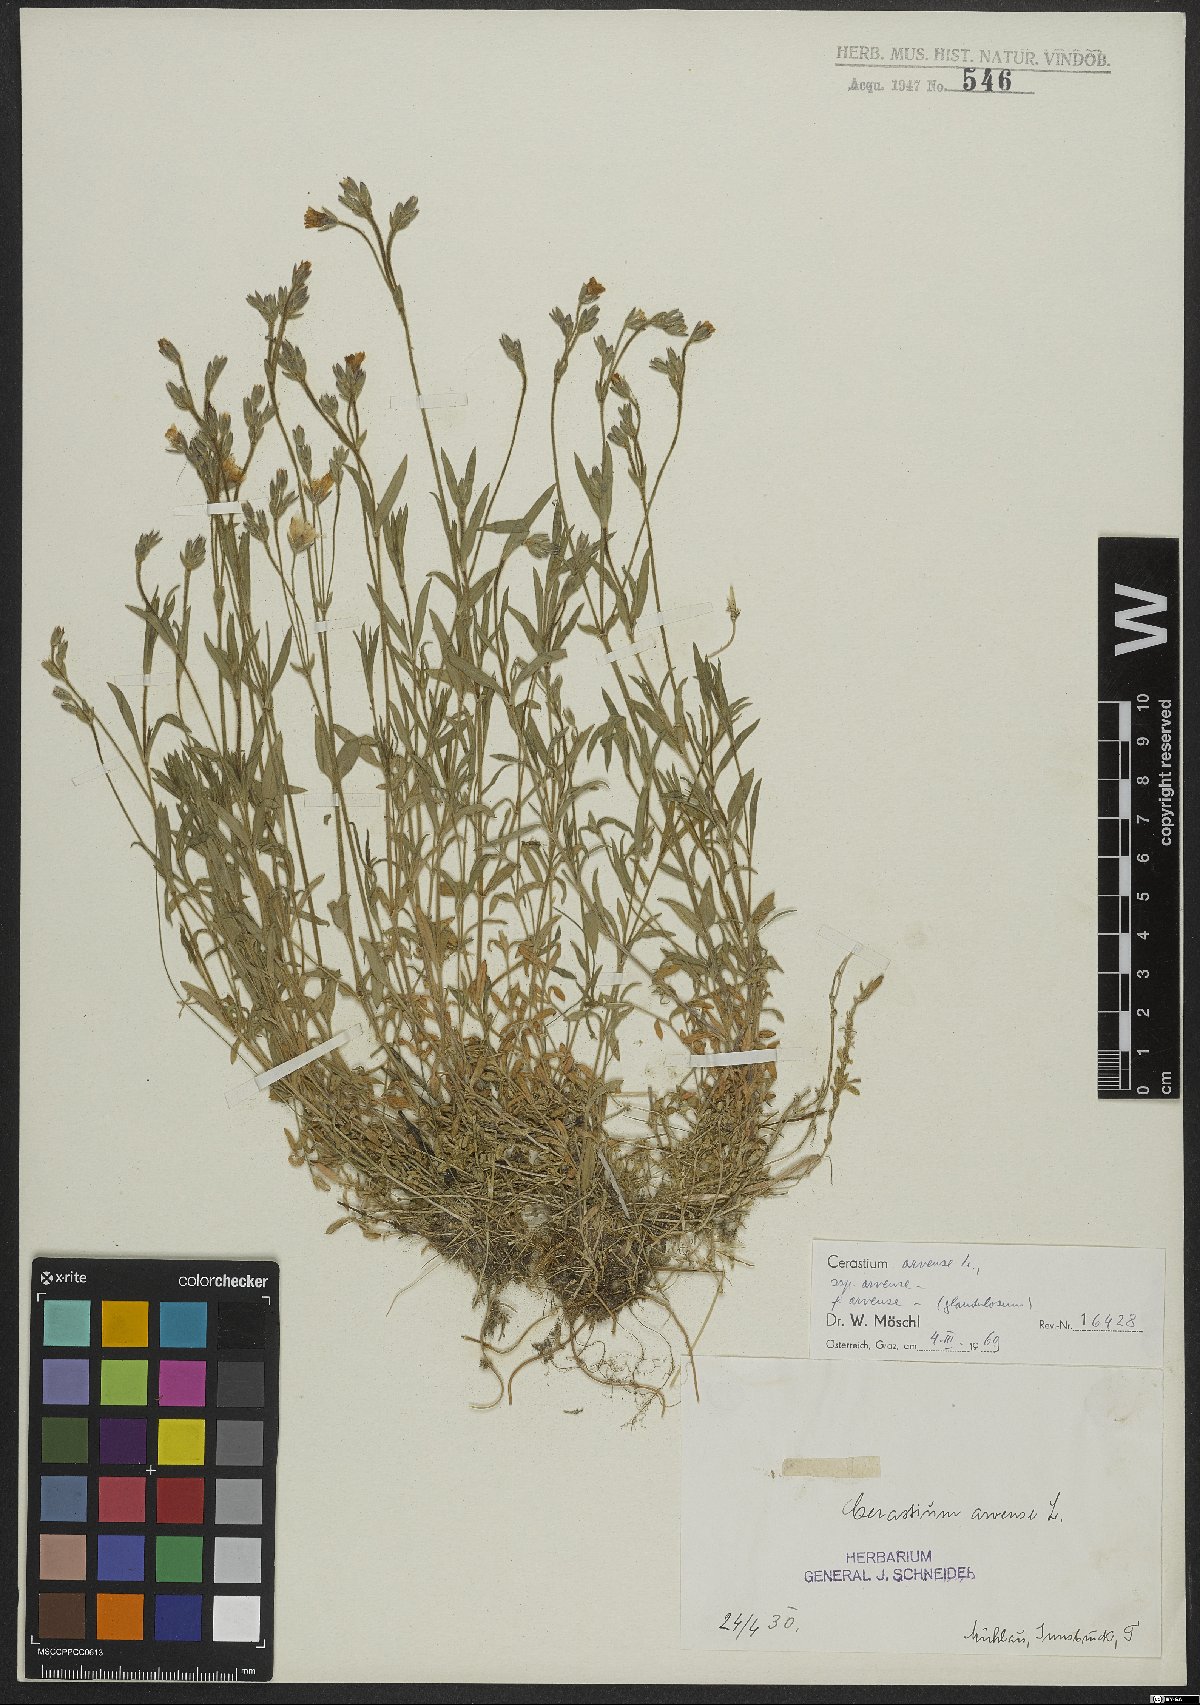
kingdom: Plantae
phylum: Tracheophyta
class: Magnoliopsida
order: Caryophyllales
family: Caryophyllaceae
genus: Cerastium
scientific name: Cerastium arvense
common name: Field mouse-ear
